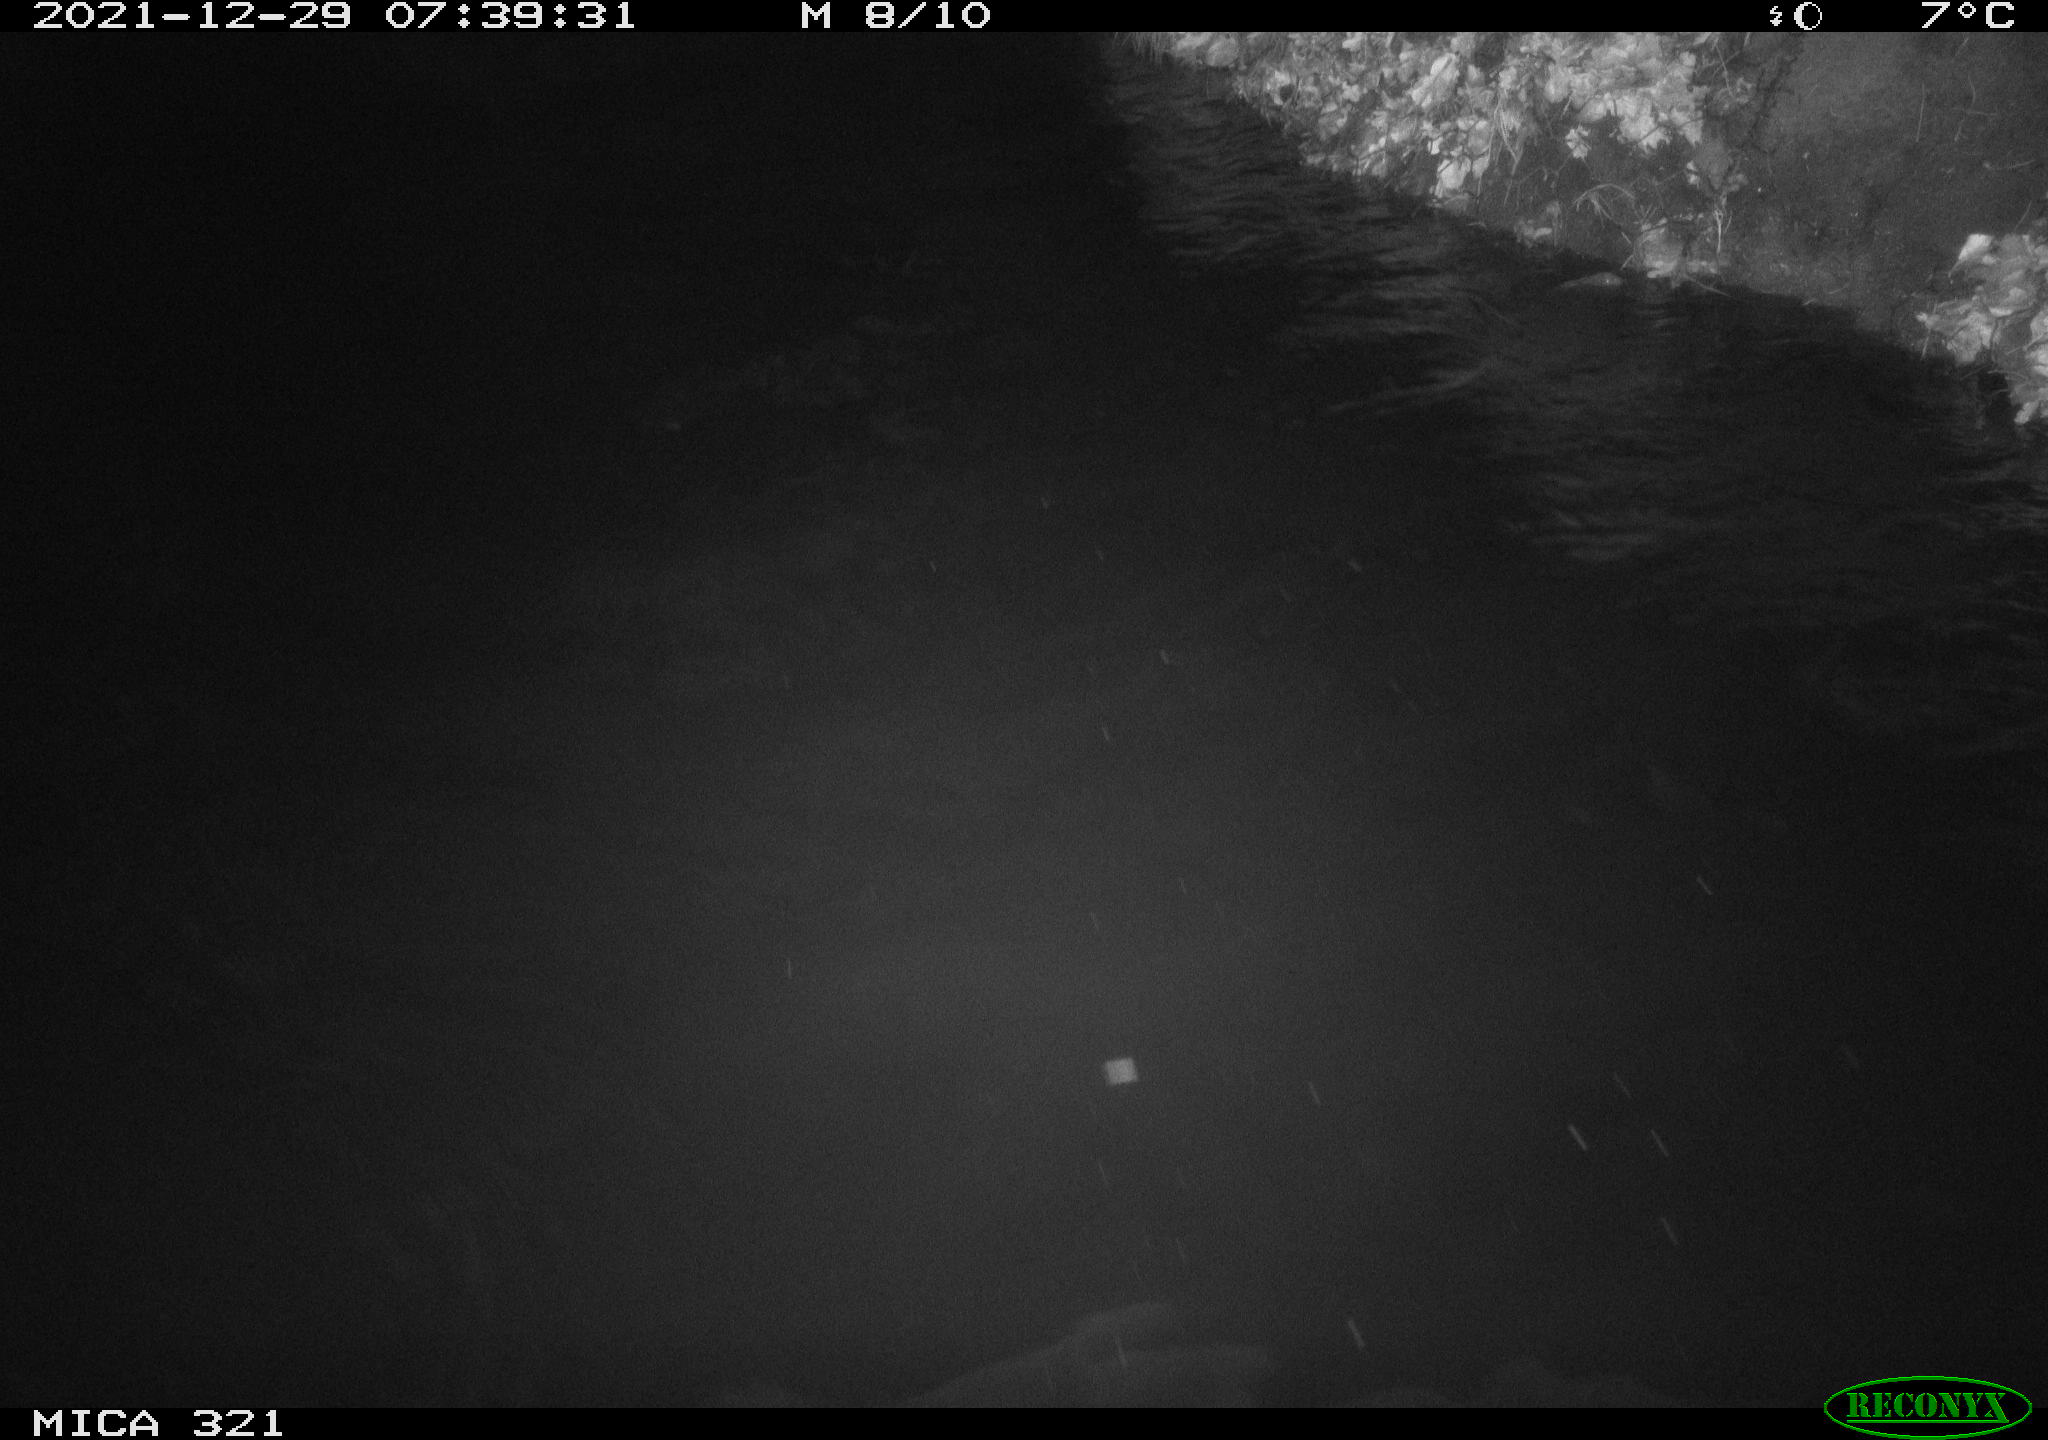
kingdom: Animalia
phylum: Chordata
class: Aves
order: Anseriformes
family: Anatidae
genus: Anas
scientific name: Anas
